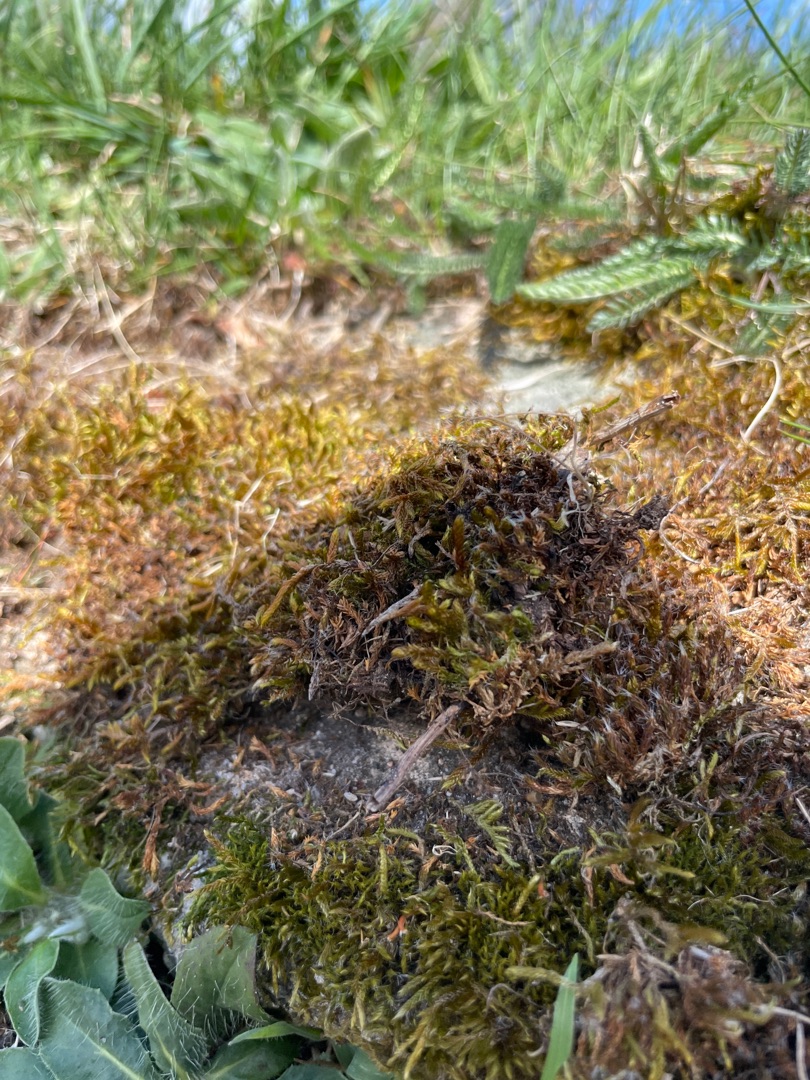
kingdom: Plantae
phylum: Bryophyta
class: Bryopsida
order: Hypnales
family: Hypnaceae
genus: Hypnum
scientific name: Hypnum cupressiforme
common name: Almindelig cypresmos
